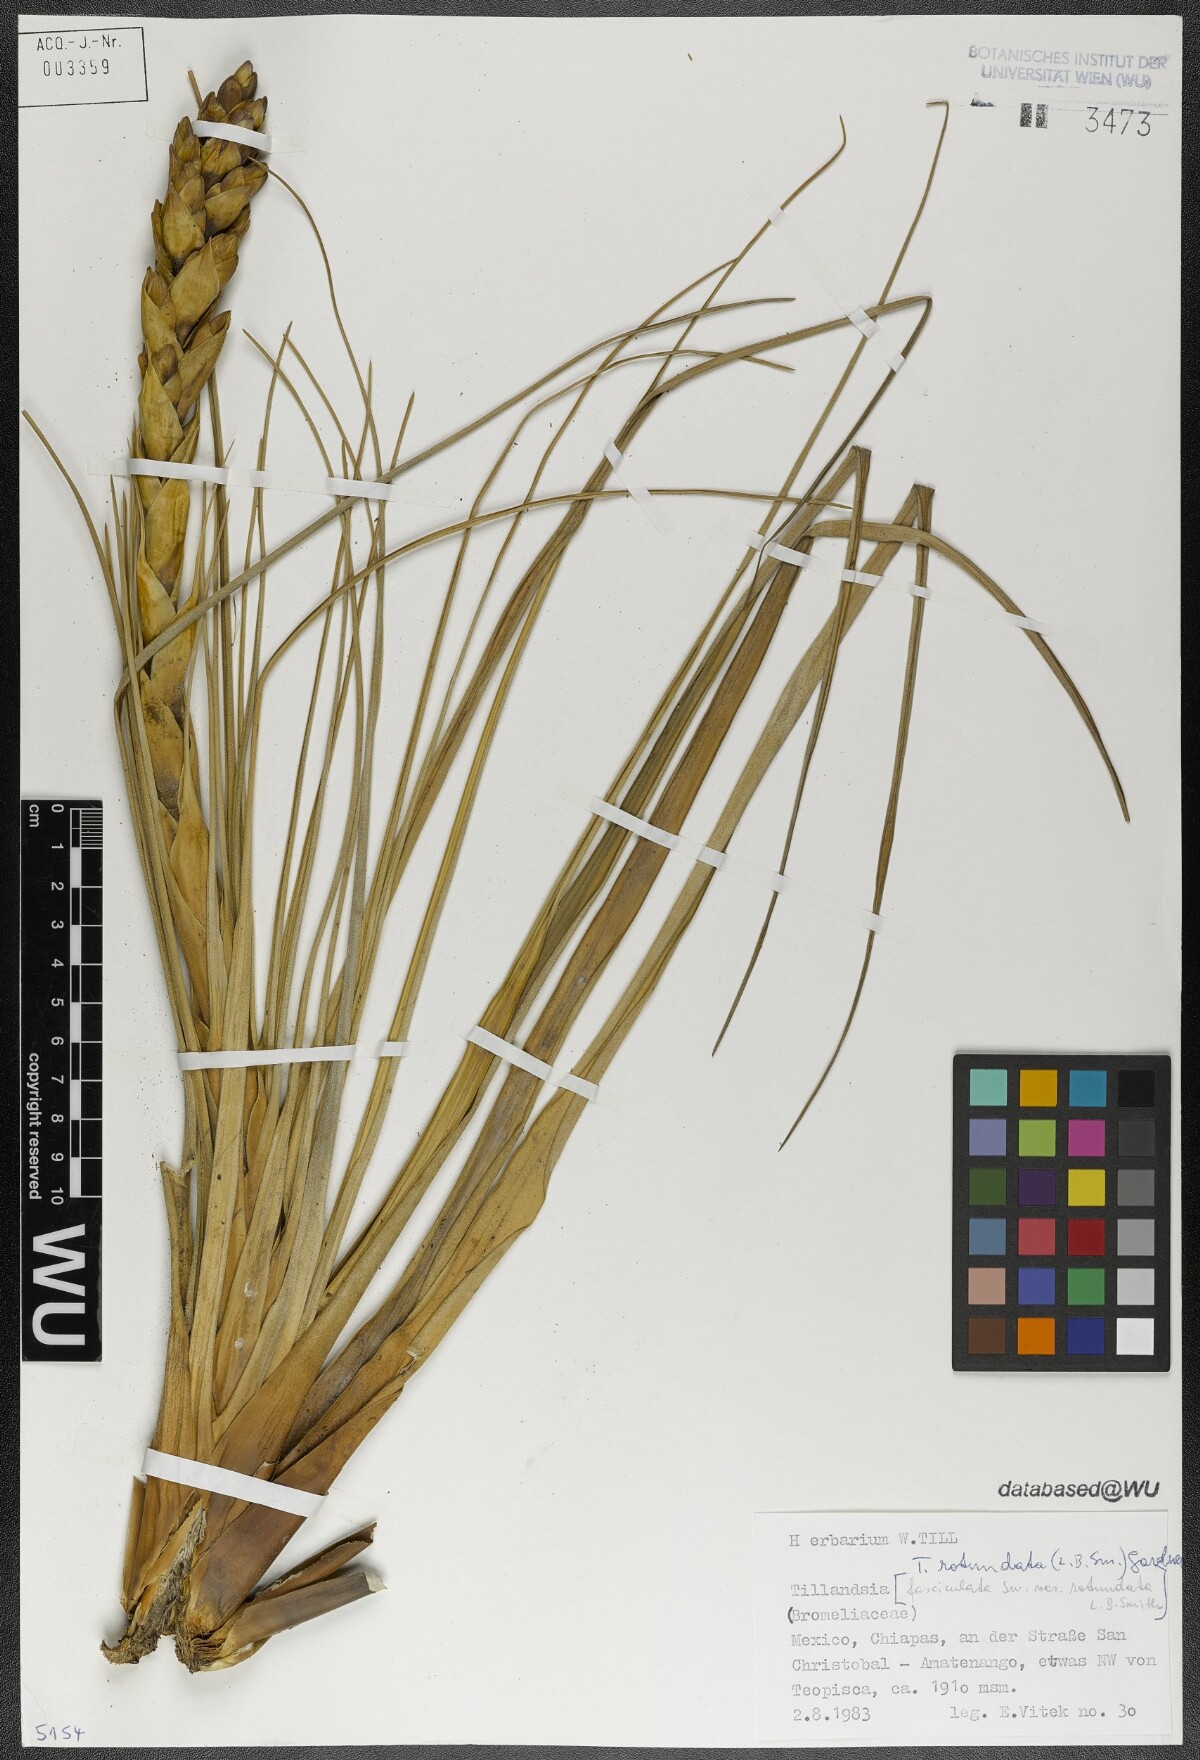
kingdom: Plantae
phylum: Tracheophyta
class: Liliopsida
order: Poales
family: Bromeliaceae
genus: Tillandsia
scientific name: Tillandsia rotundata
